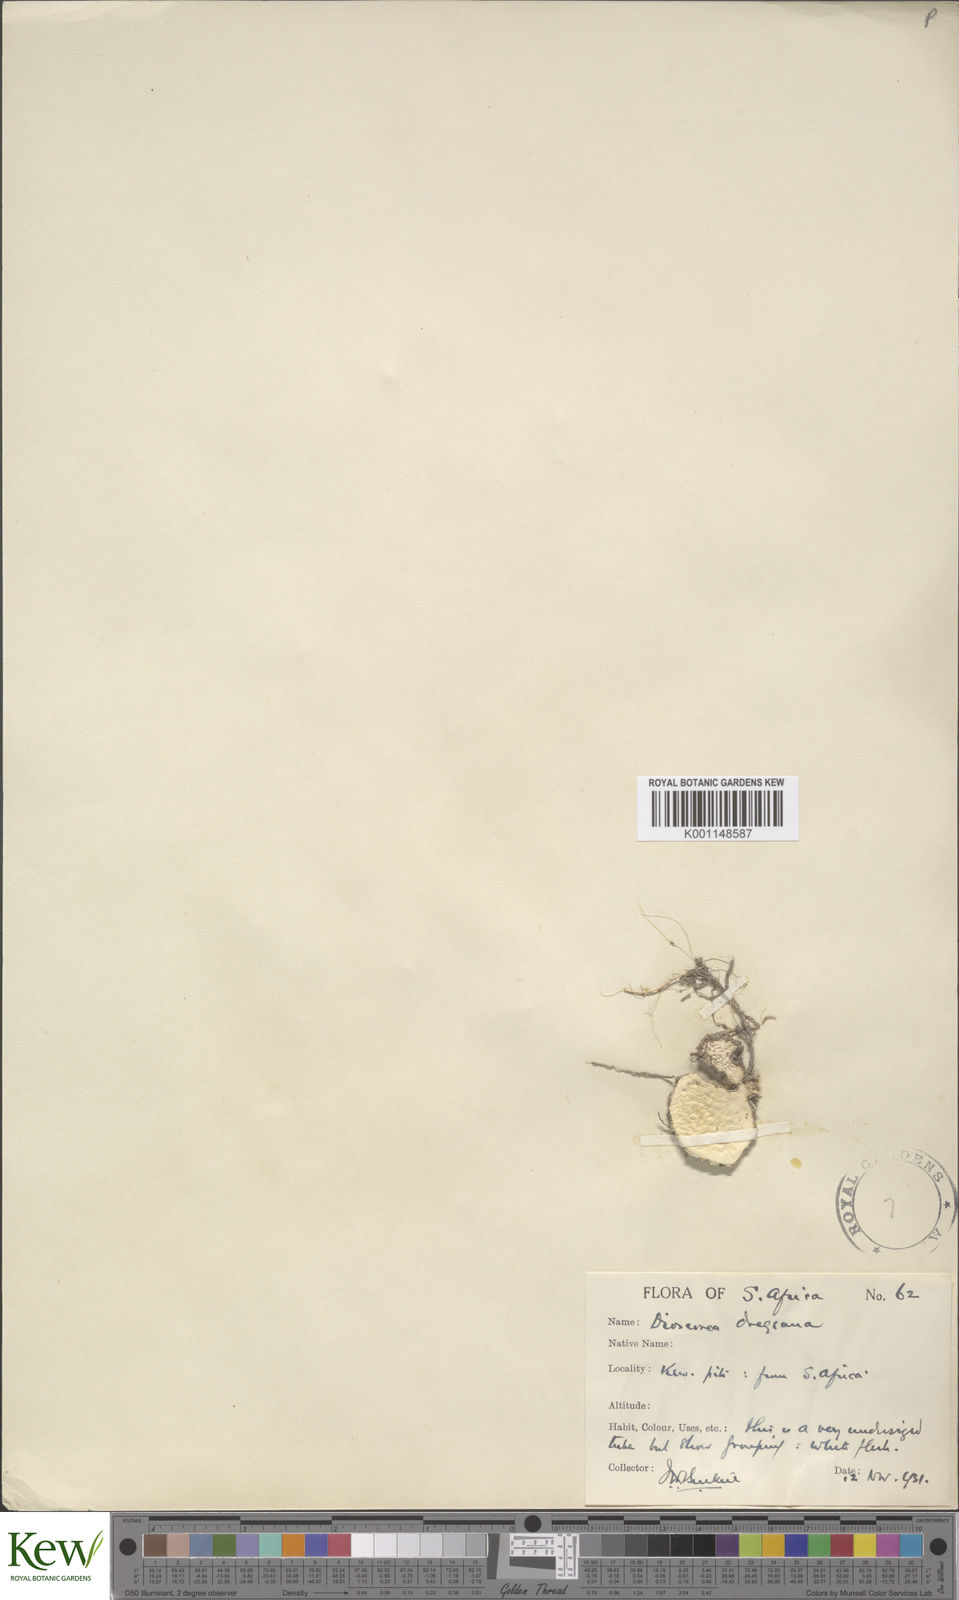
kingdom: Plantae
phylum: Tracheophyta
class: Liliopsida
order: Dioscoreales
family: Dioscoreaceae
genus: Dioscorea
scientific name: Dioscorea dregeana
